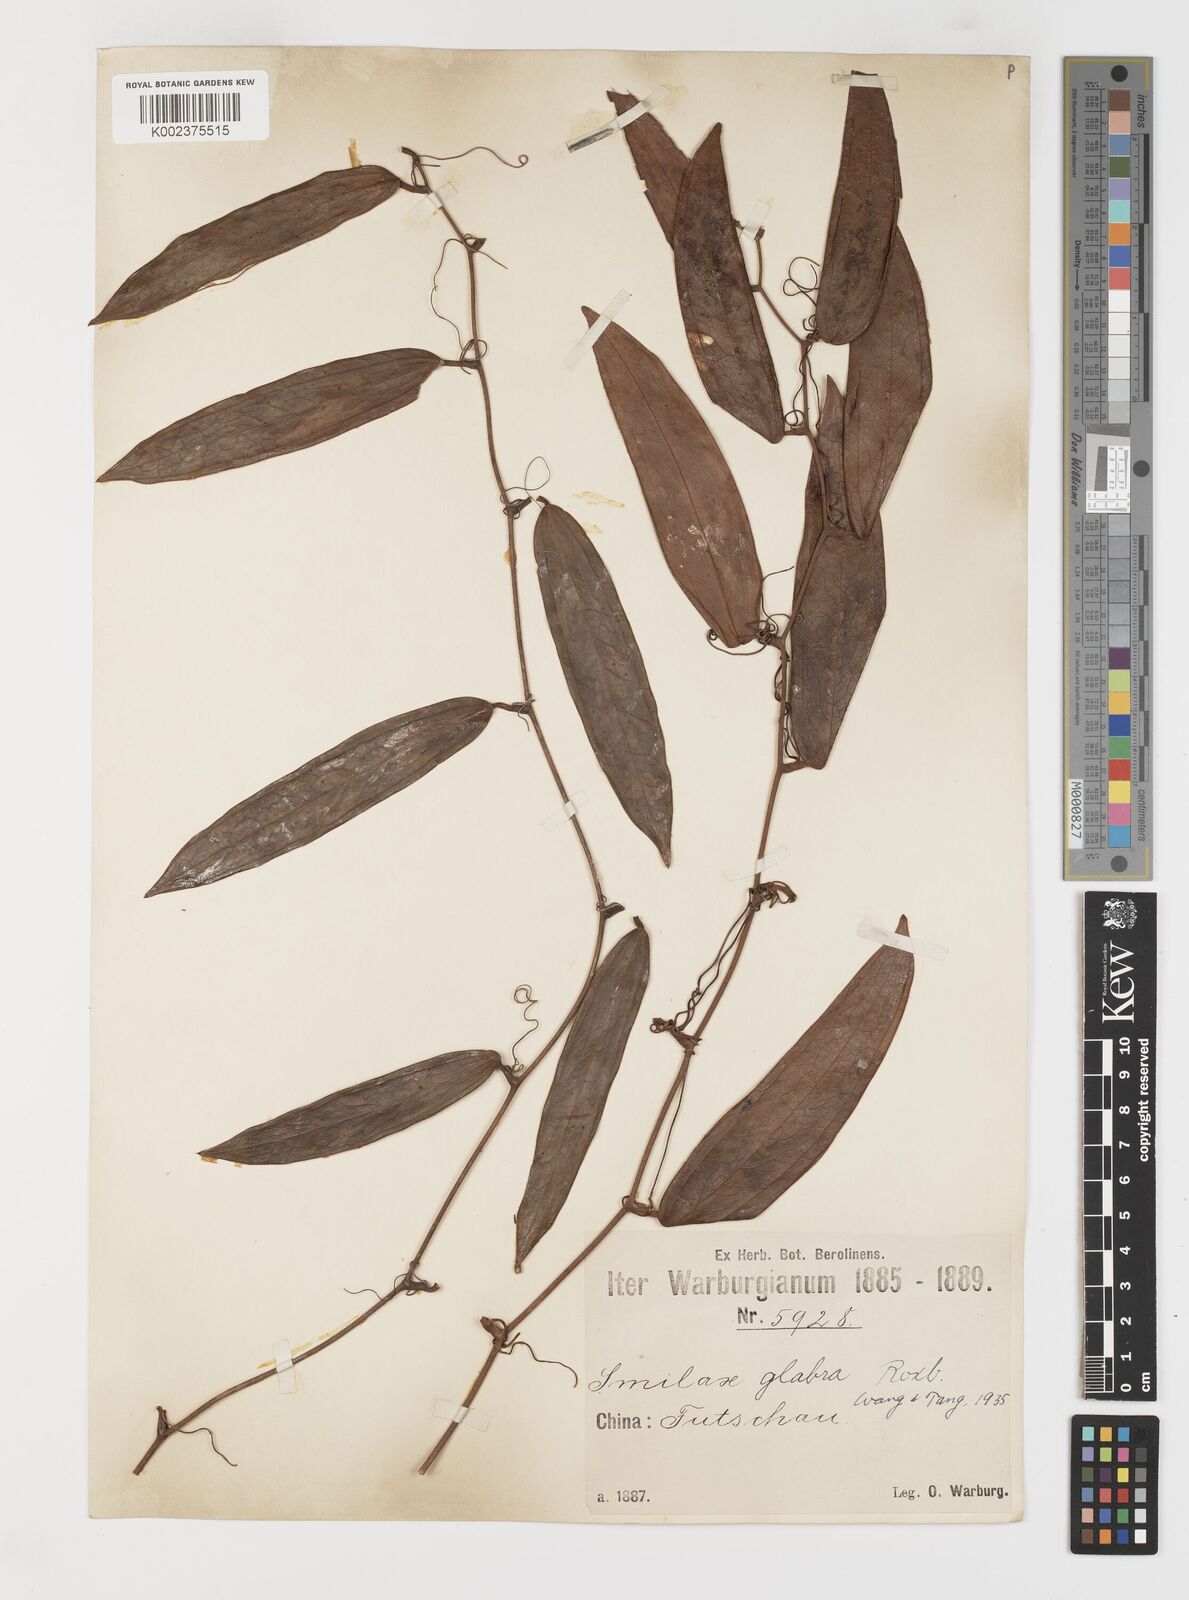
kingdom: Plantae
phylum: Tracheophyta
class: Liliopsida
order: Liliales
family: Smilacaceae
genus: Smilax
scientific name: Smilax glabra
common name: Chinese smilax
